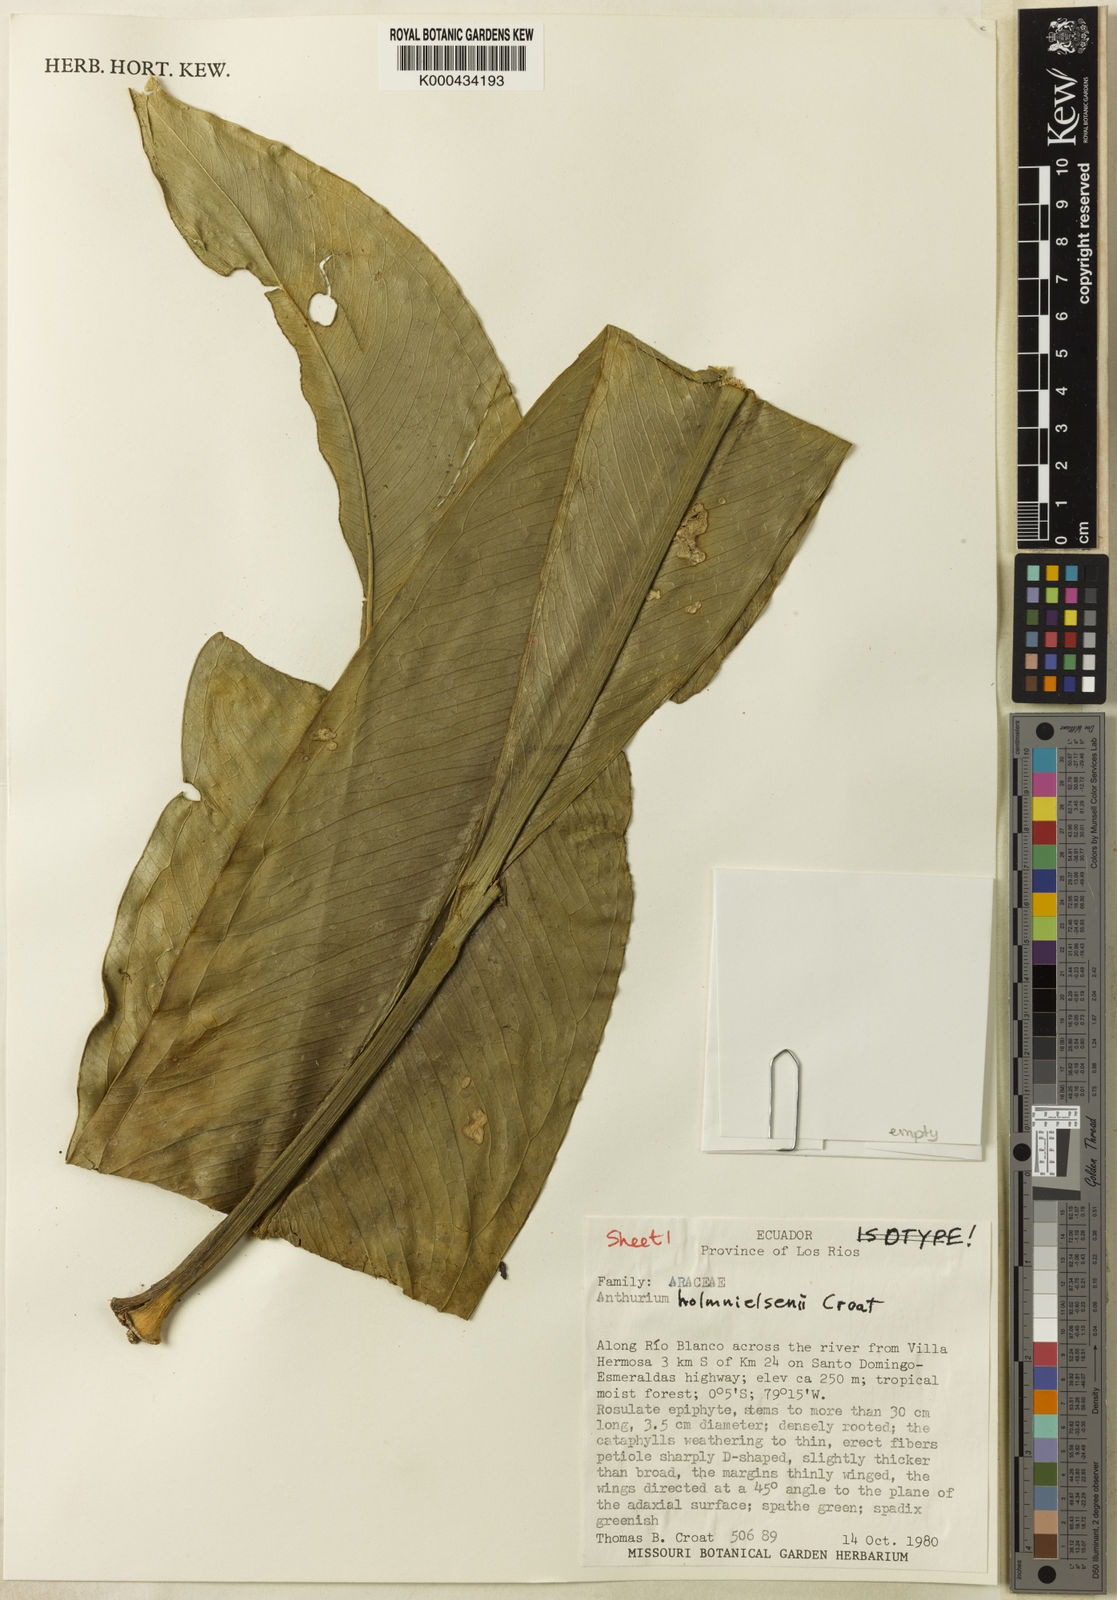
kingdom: Plantae
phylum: Tracheophyta
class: Liliopsida
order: Alismatales
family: Araceae
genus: Anthurium
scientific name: Anthurium holm-nielsenii
